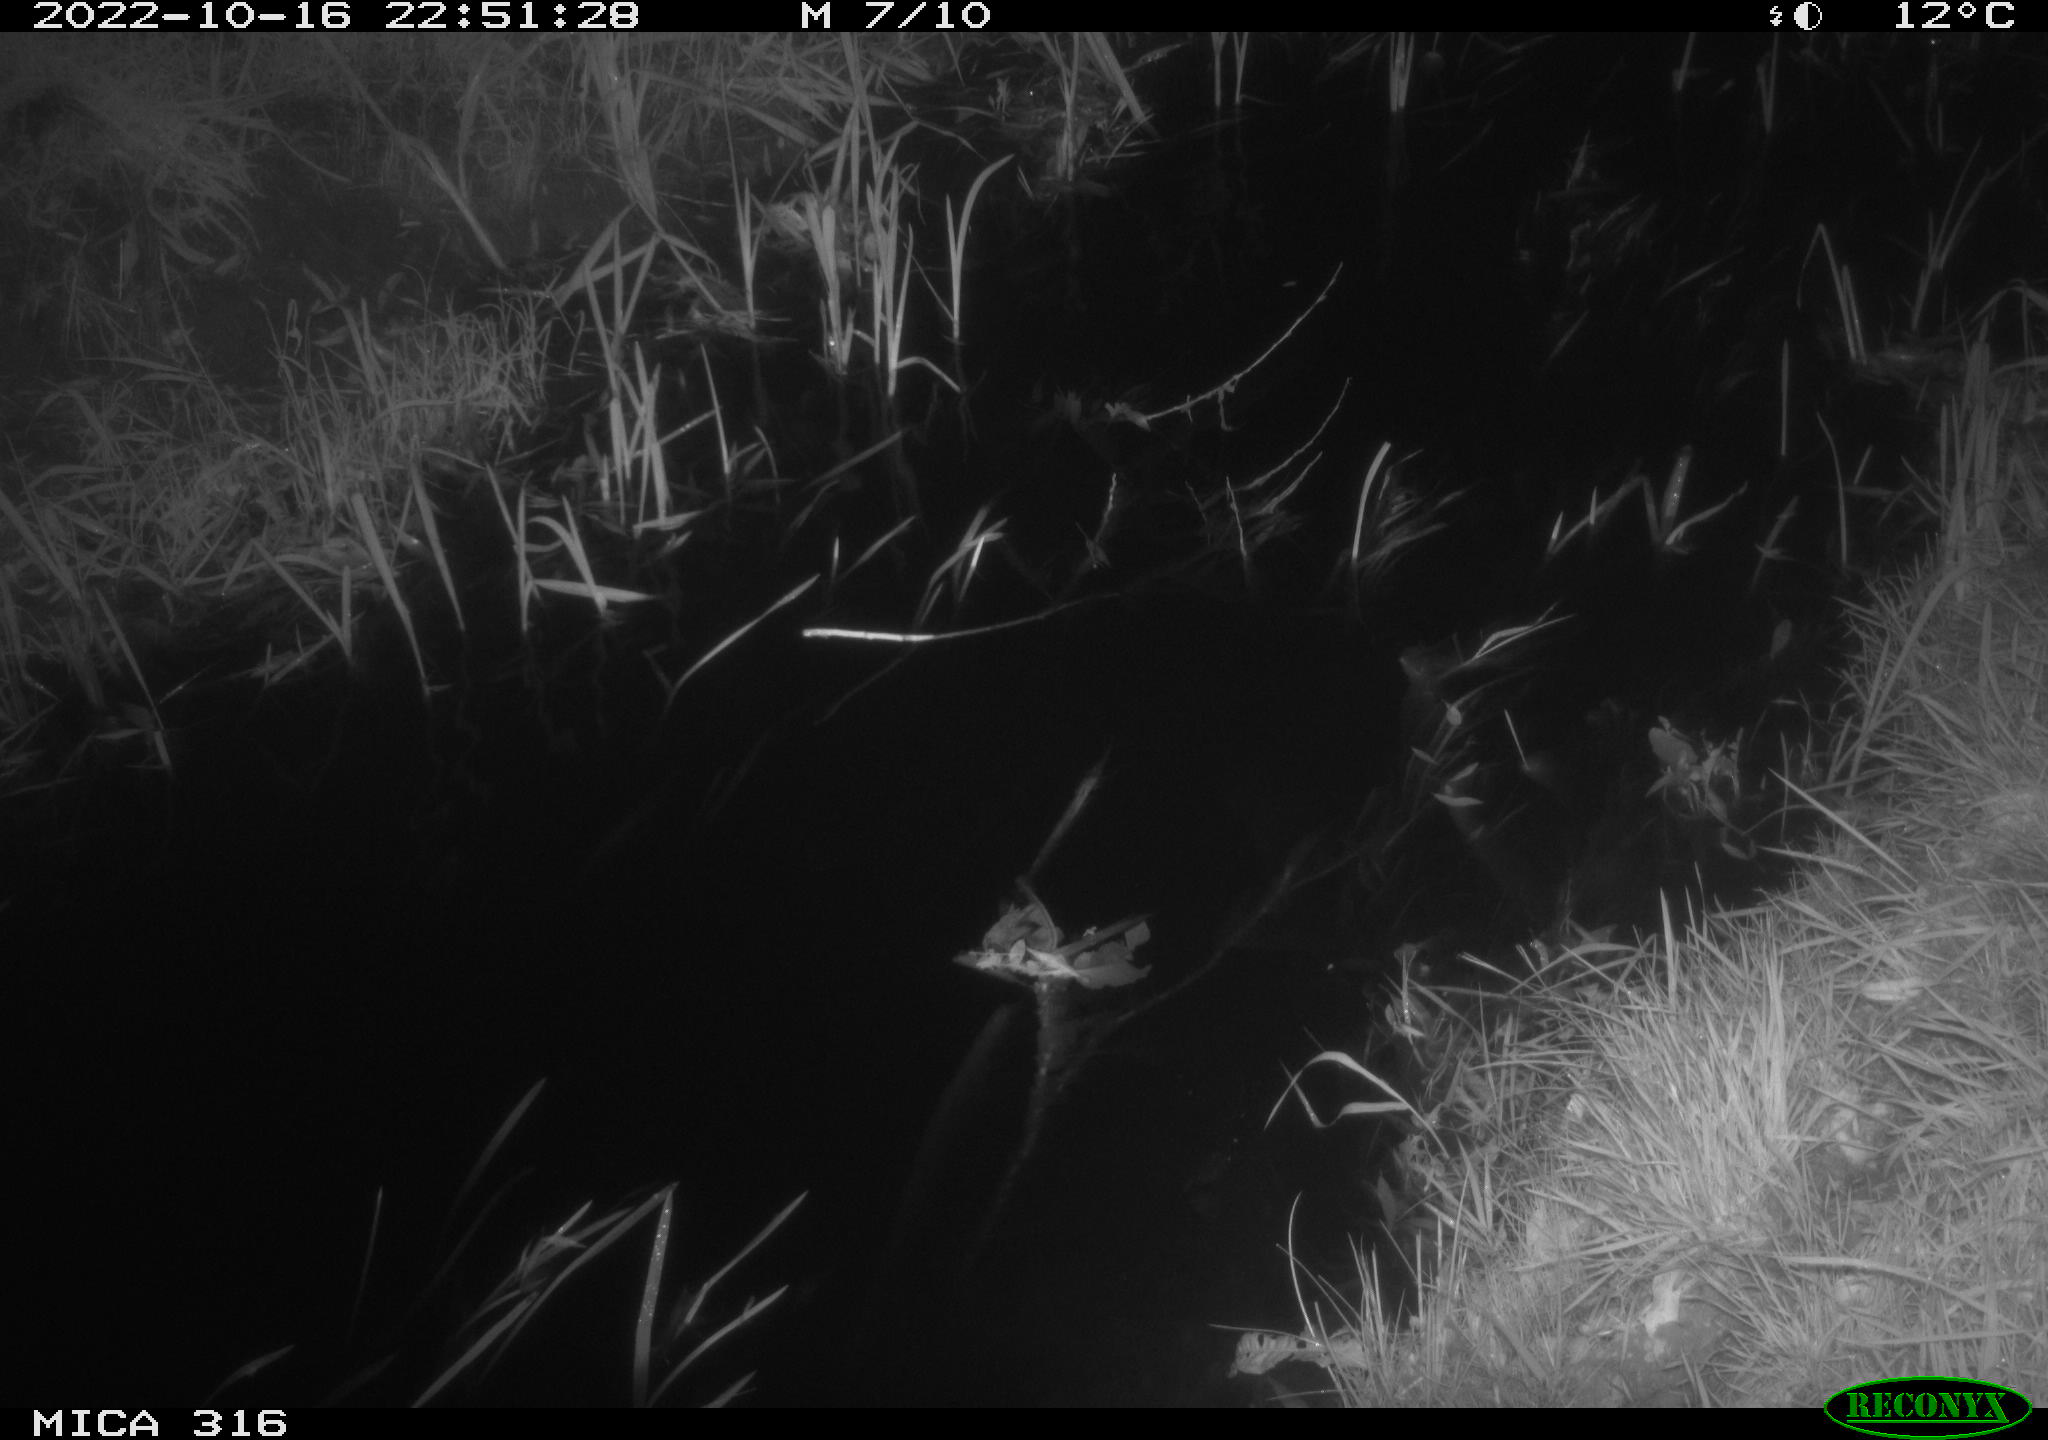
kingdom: Animalia
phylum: Chordata
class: Mammalia
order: Rodentia
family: Muridae
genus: Rattus
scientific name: Rattus norvegicus
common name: Brown rat
